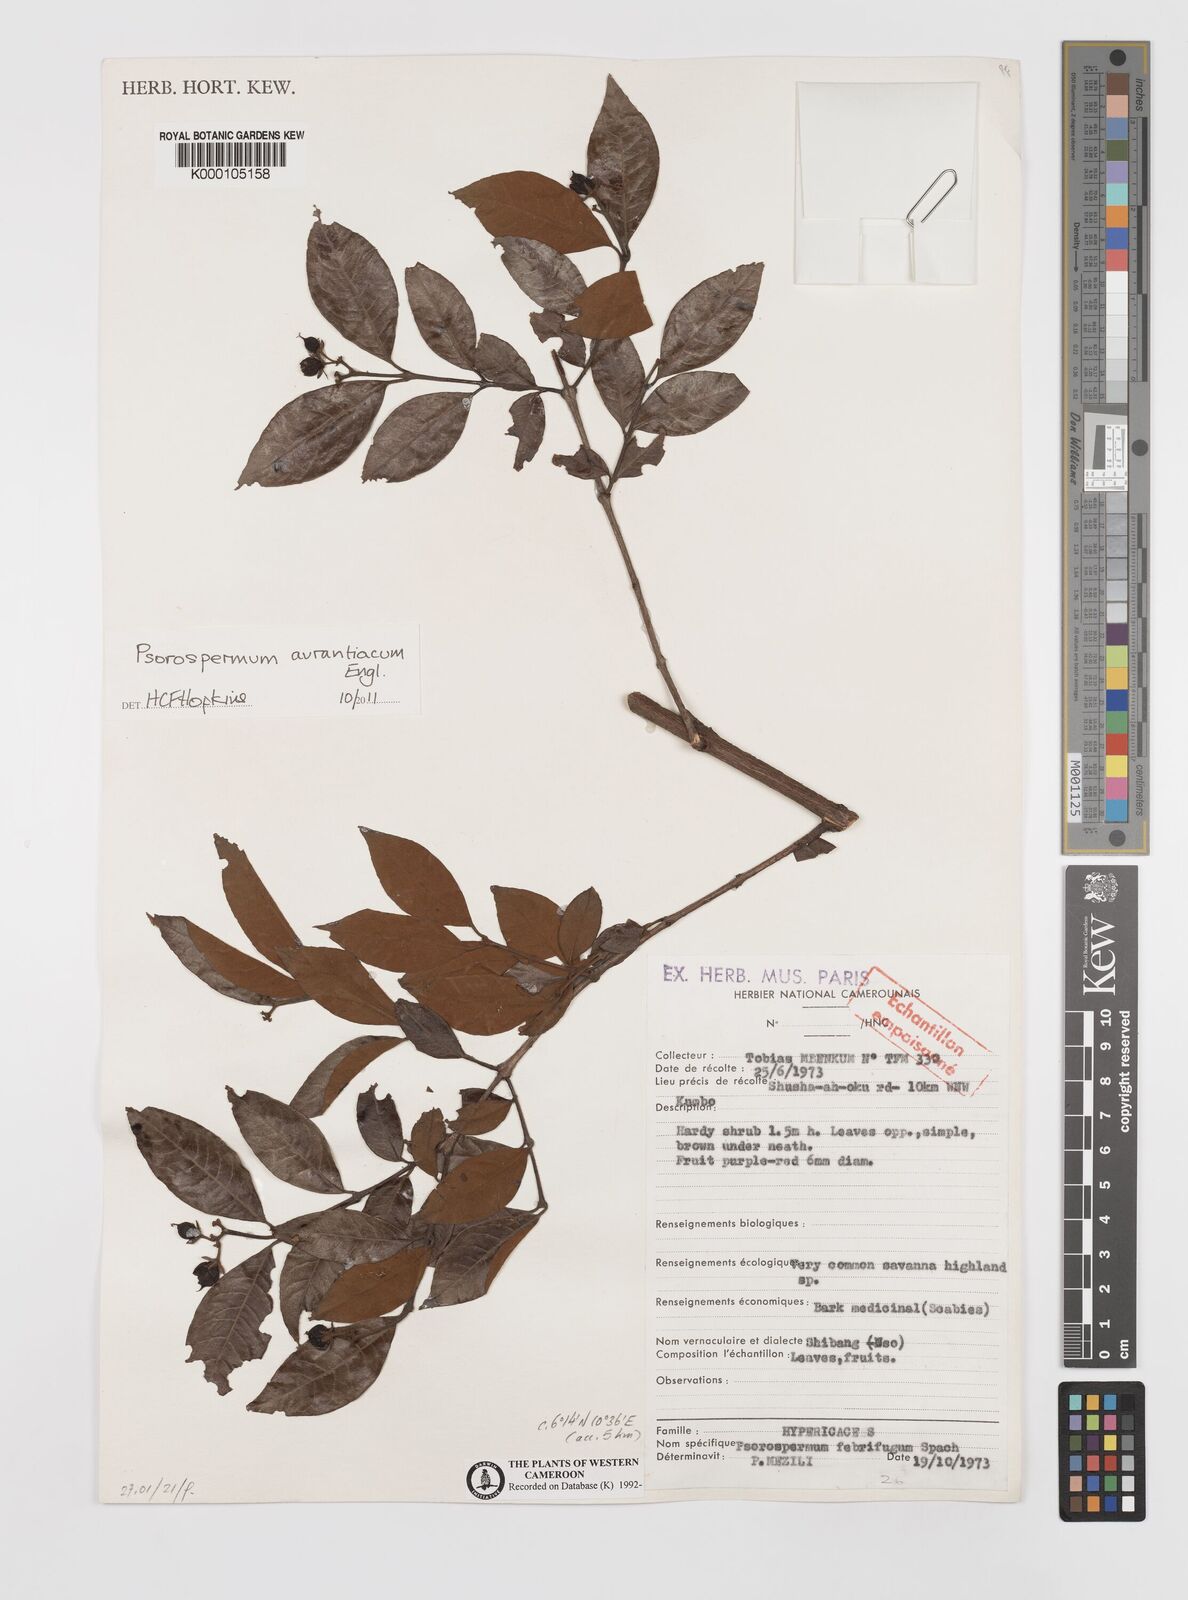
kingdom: Plantae
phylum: Tracheophyta
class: Magnoliopsida
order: Malpighiales
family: Hypericaceae
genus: Psorospermum
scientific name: Psorospermum febrifugum
